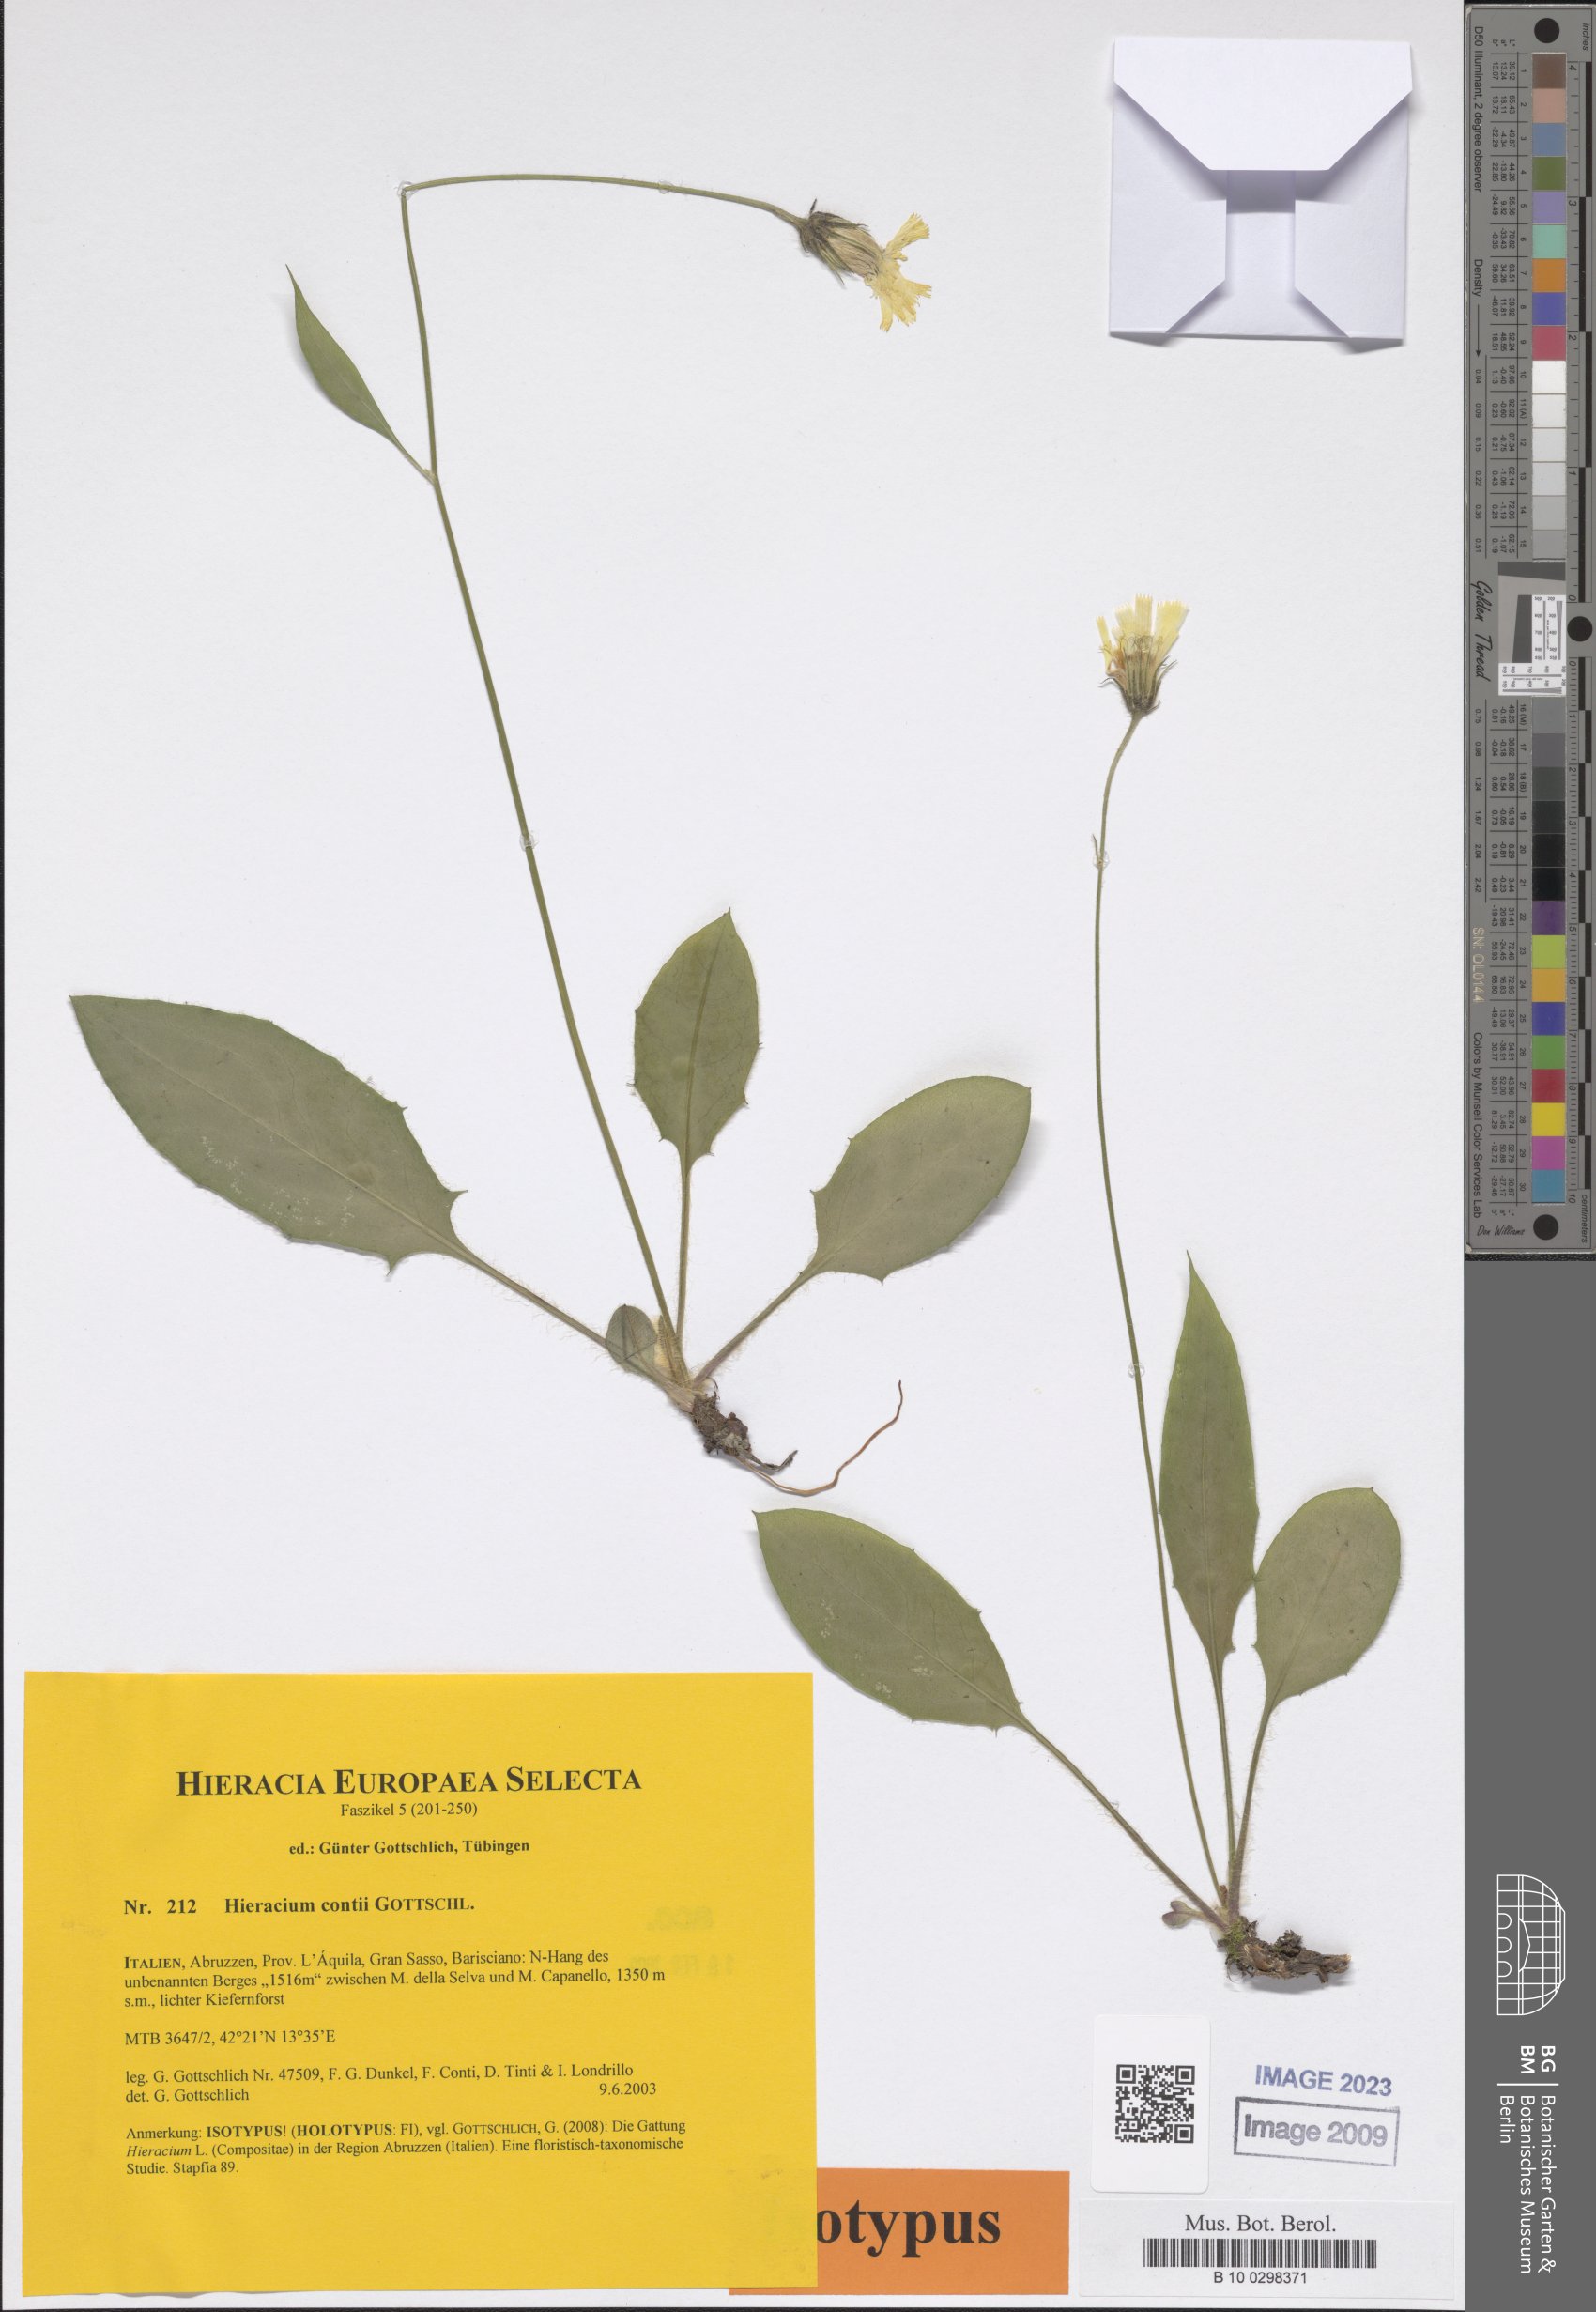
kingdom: Plantae
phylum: Tracheophyta
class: Magnoliopsida
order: Asterales
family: Asteraceae
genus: Hieracium
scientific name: Hieracium contii
